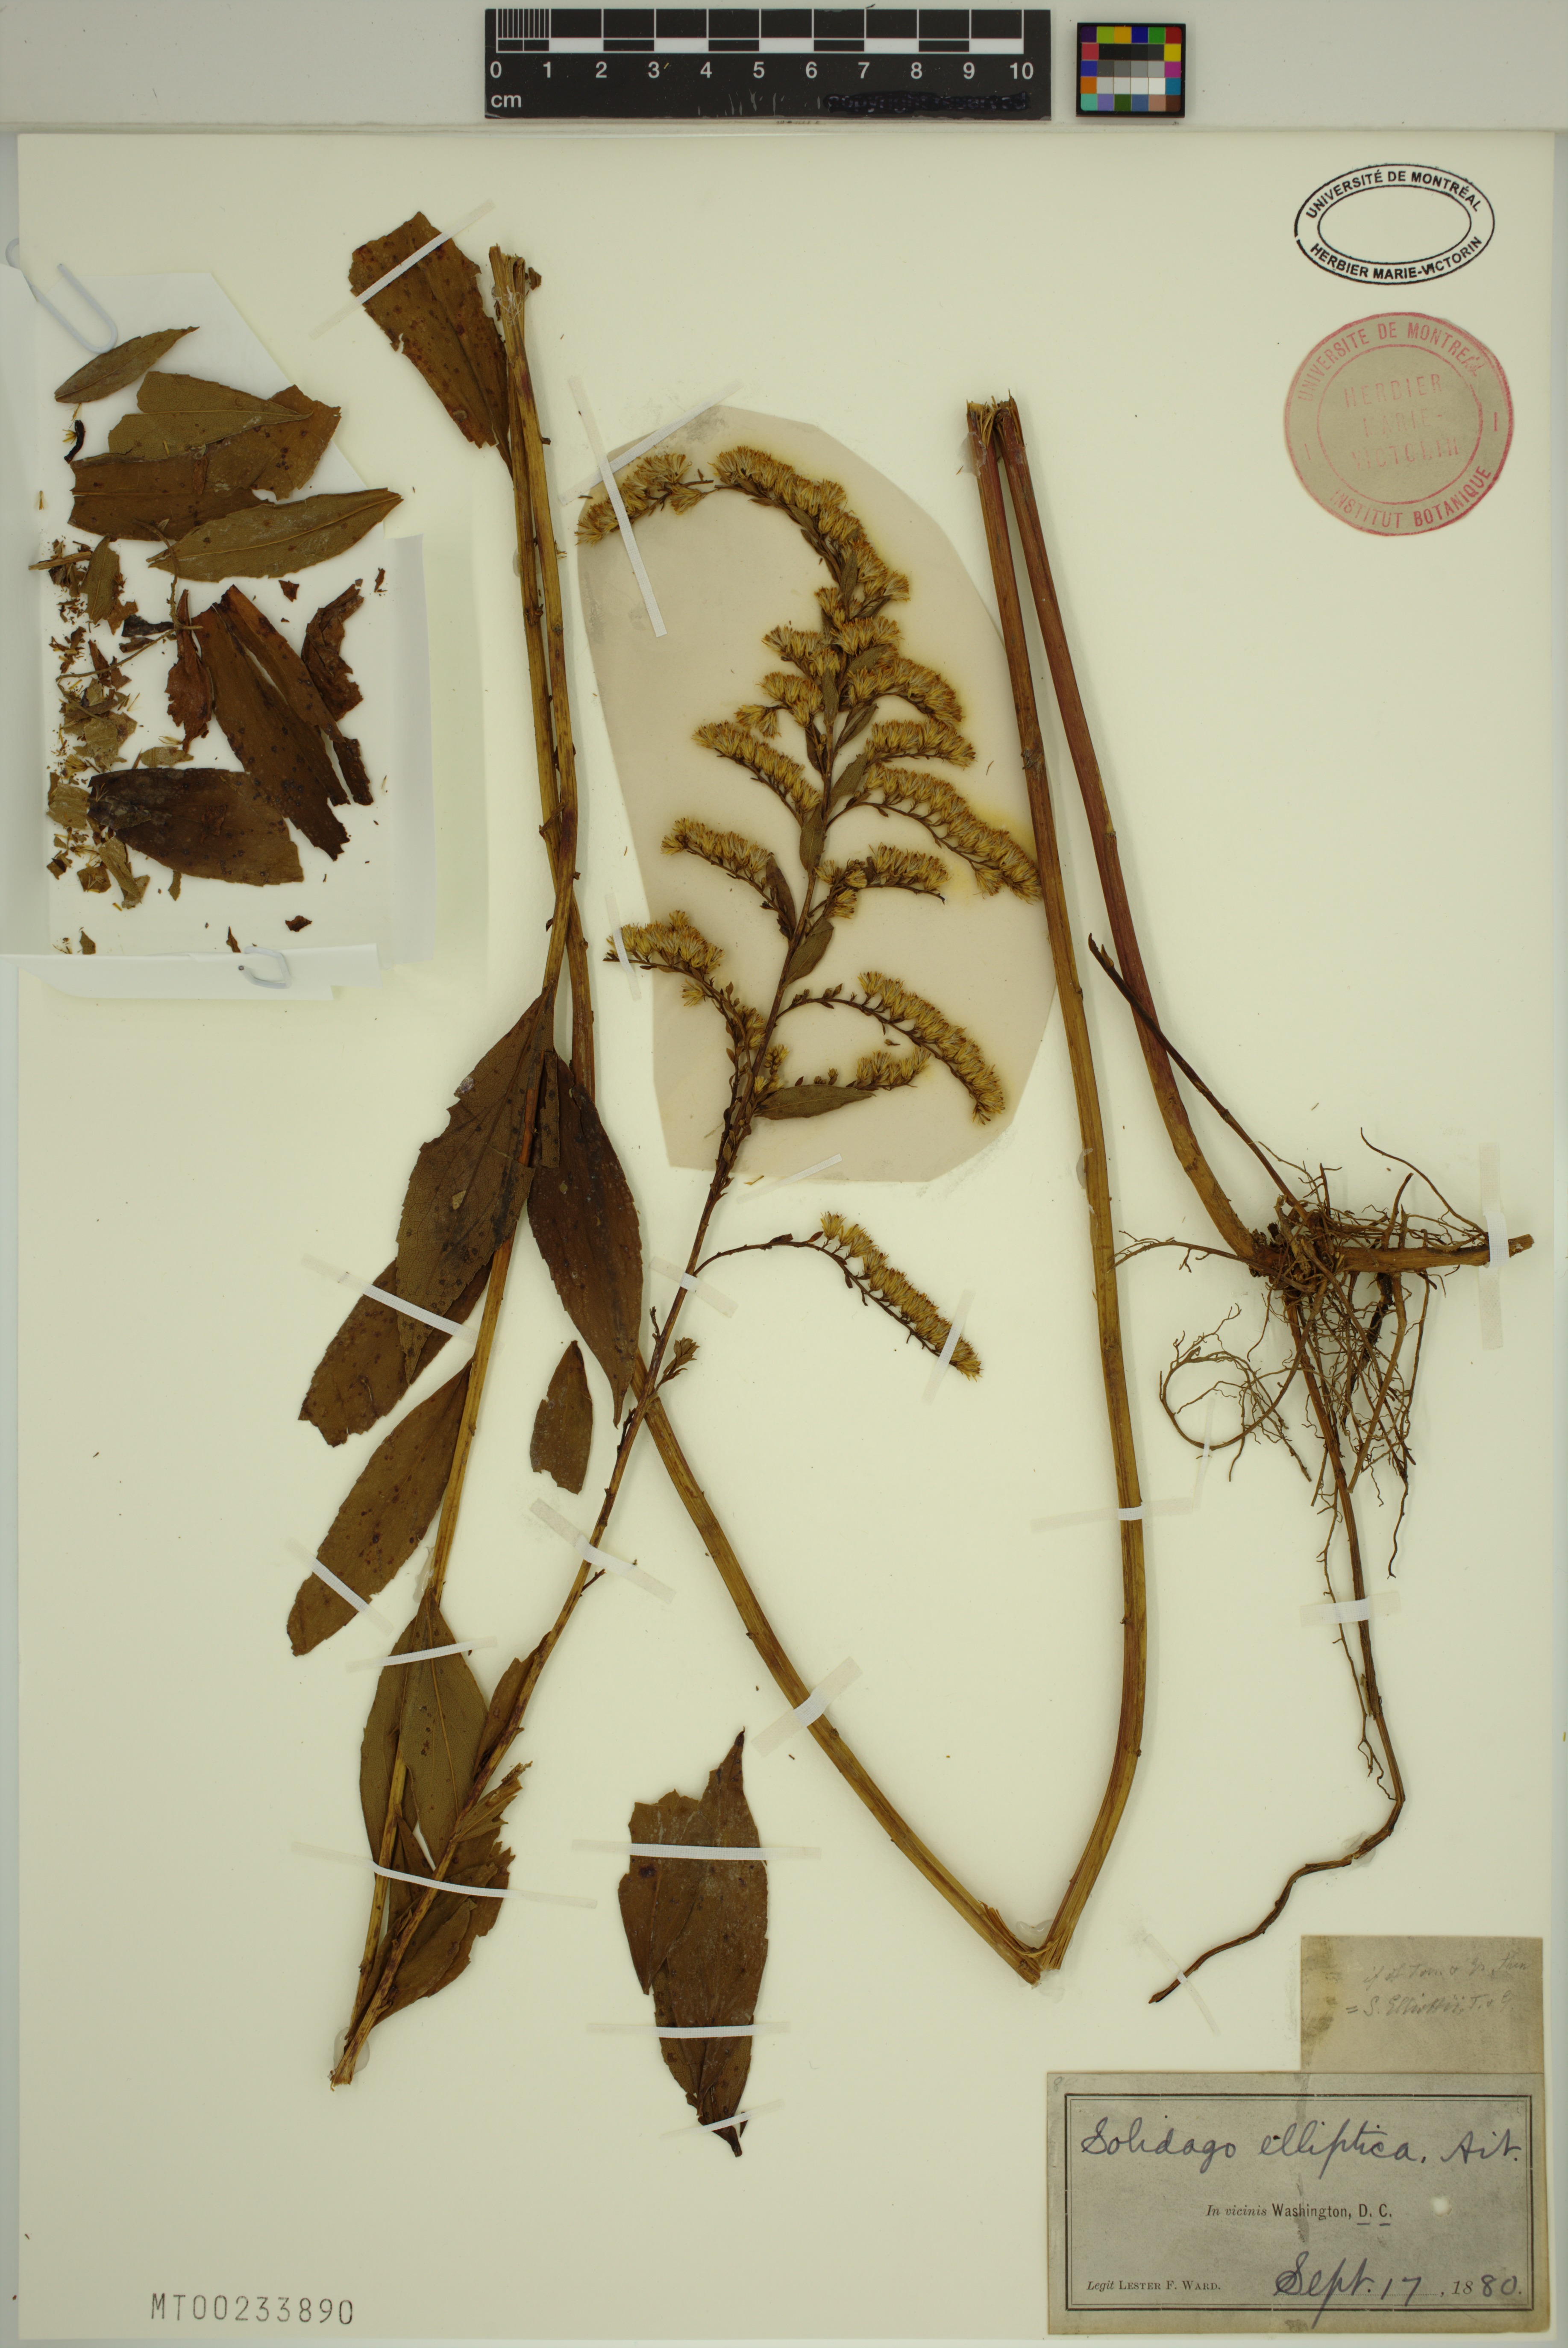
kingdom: Plantae
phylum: Tracheophyta
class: Magnoliopsida
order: Asterales
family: Asteraceae
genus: Solidago
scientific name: Solidago latissimifolia
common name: Elliott's goldenrod
